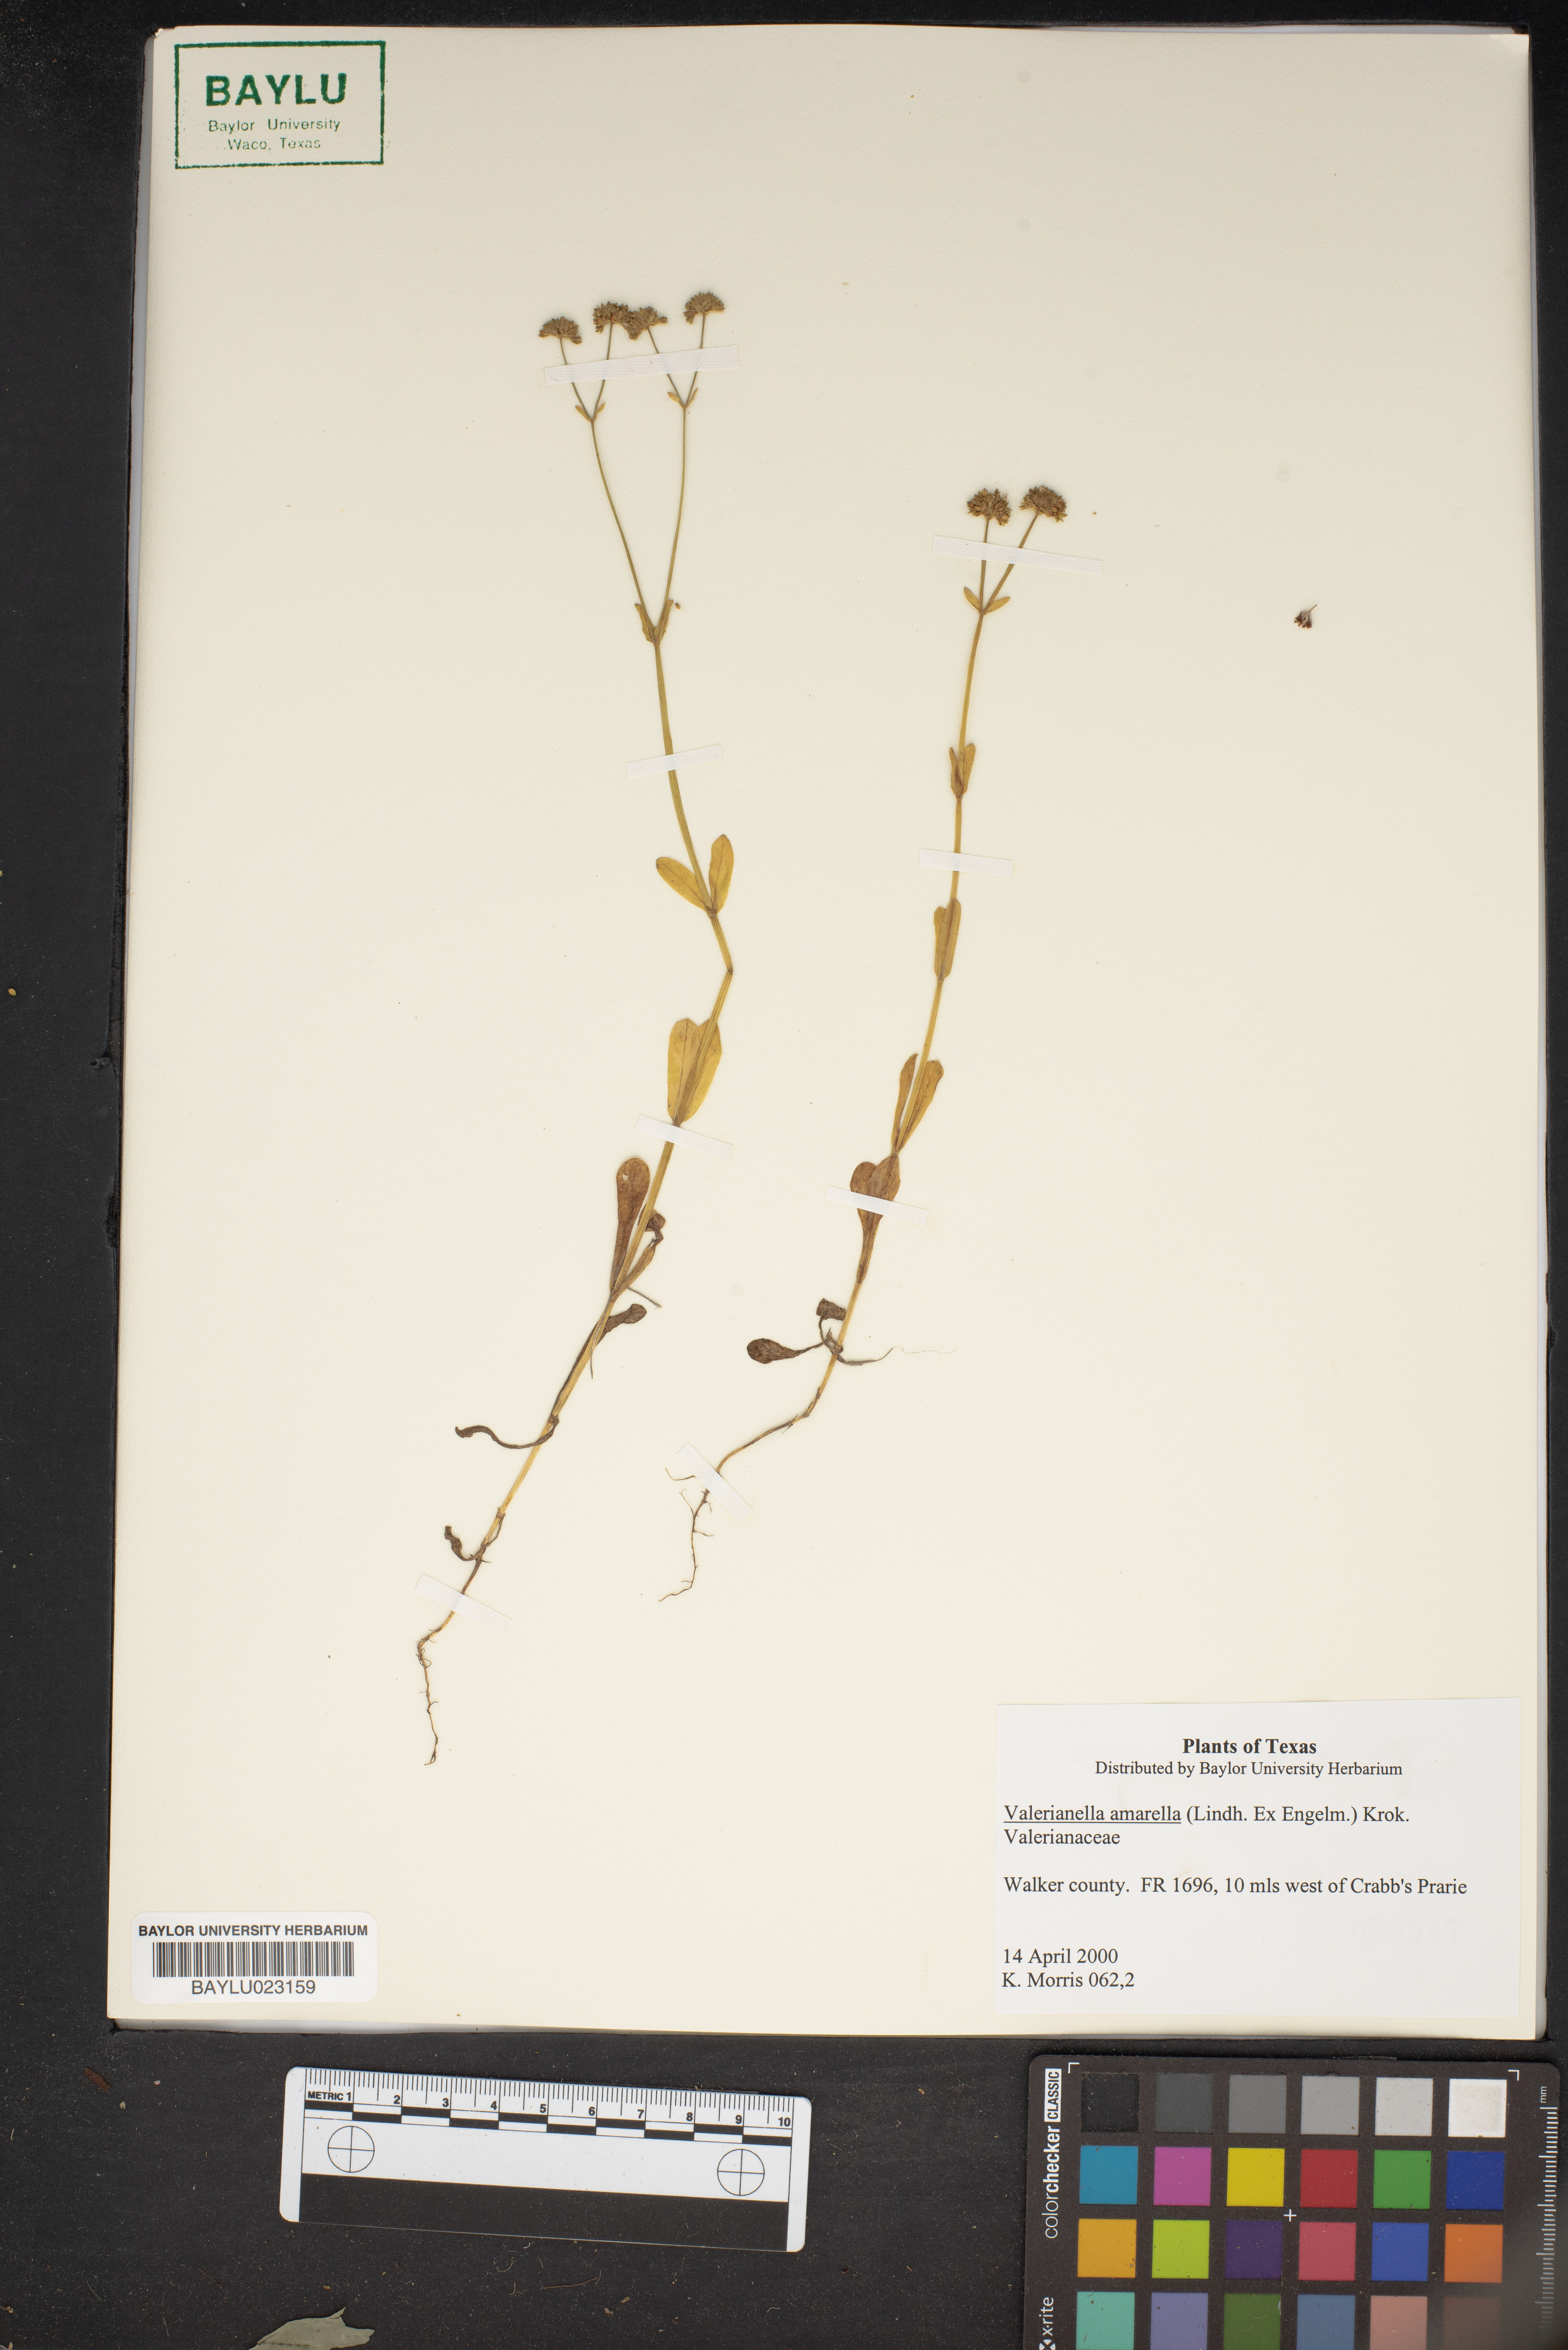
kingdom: Plantae
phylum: Tracheophyta
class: Magnoliopsida
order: Dipsacales
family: Caprifoliaceae
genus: Valerianella
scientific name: Valerianella amarella
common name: Hariy cornsalad
